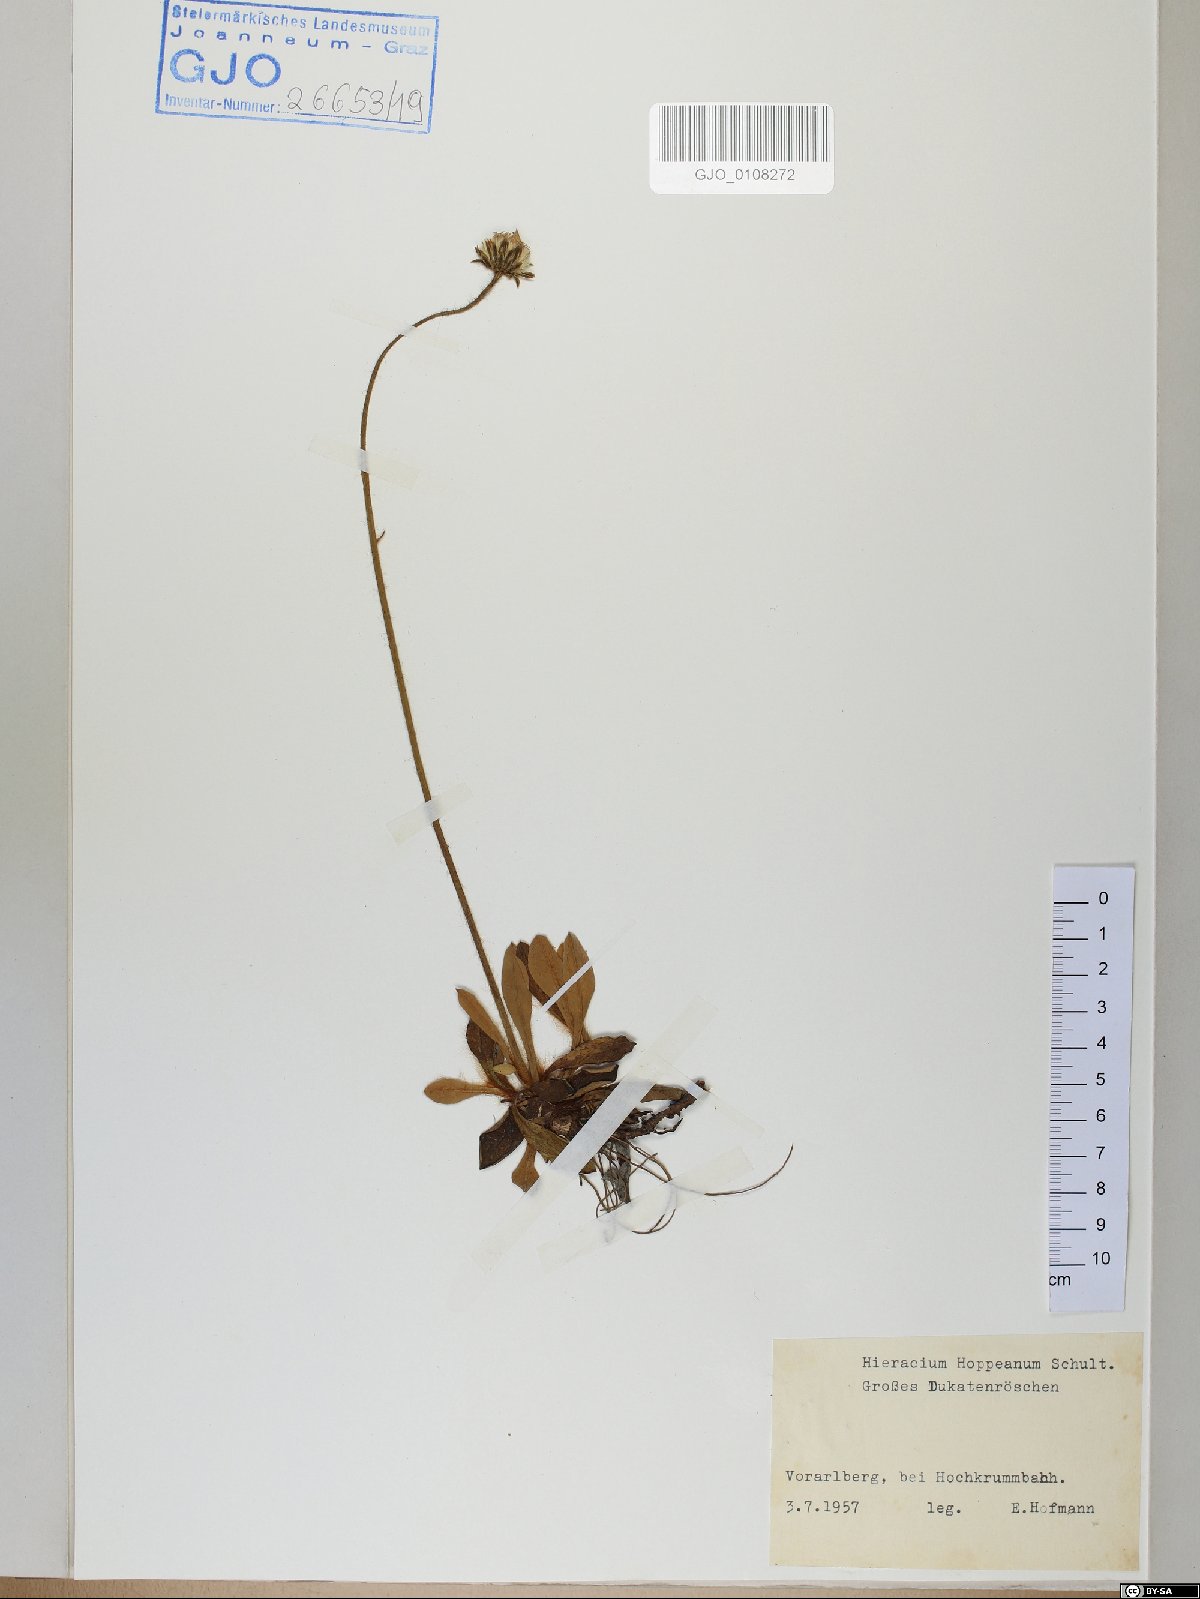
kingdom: Plantae
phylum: Tracheophyta
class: Magnoliopsida
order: Asterales
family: Asteraceae
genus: Pilosella
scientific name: Pilosella hoppeana
